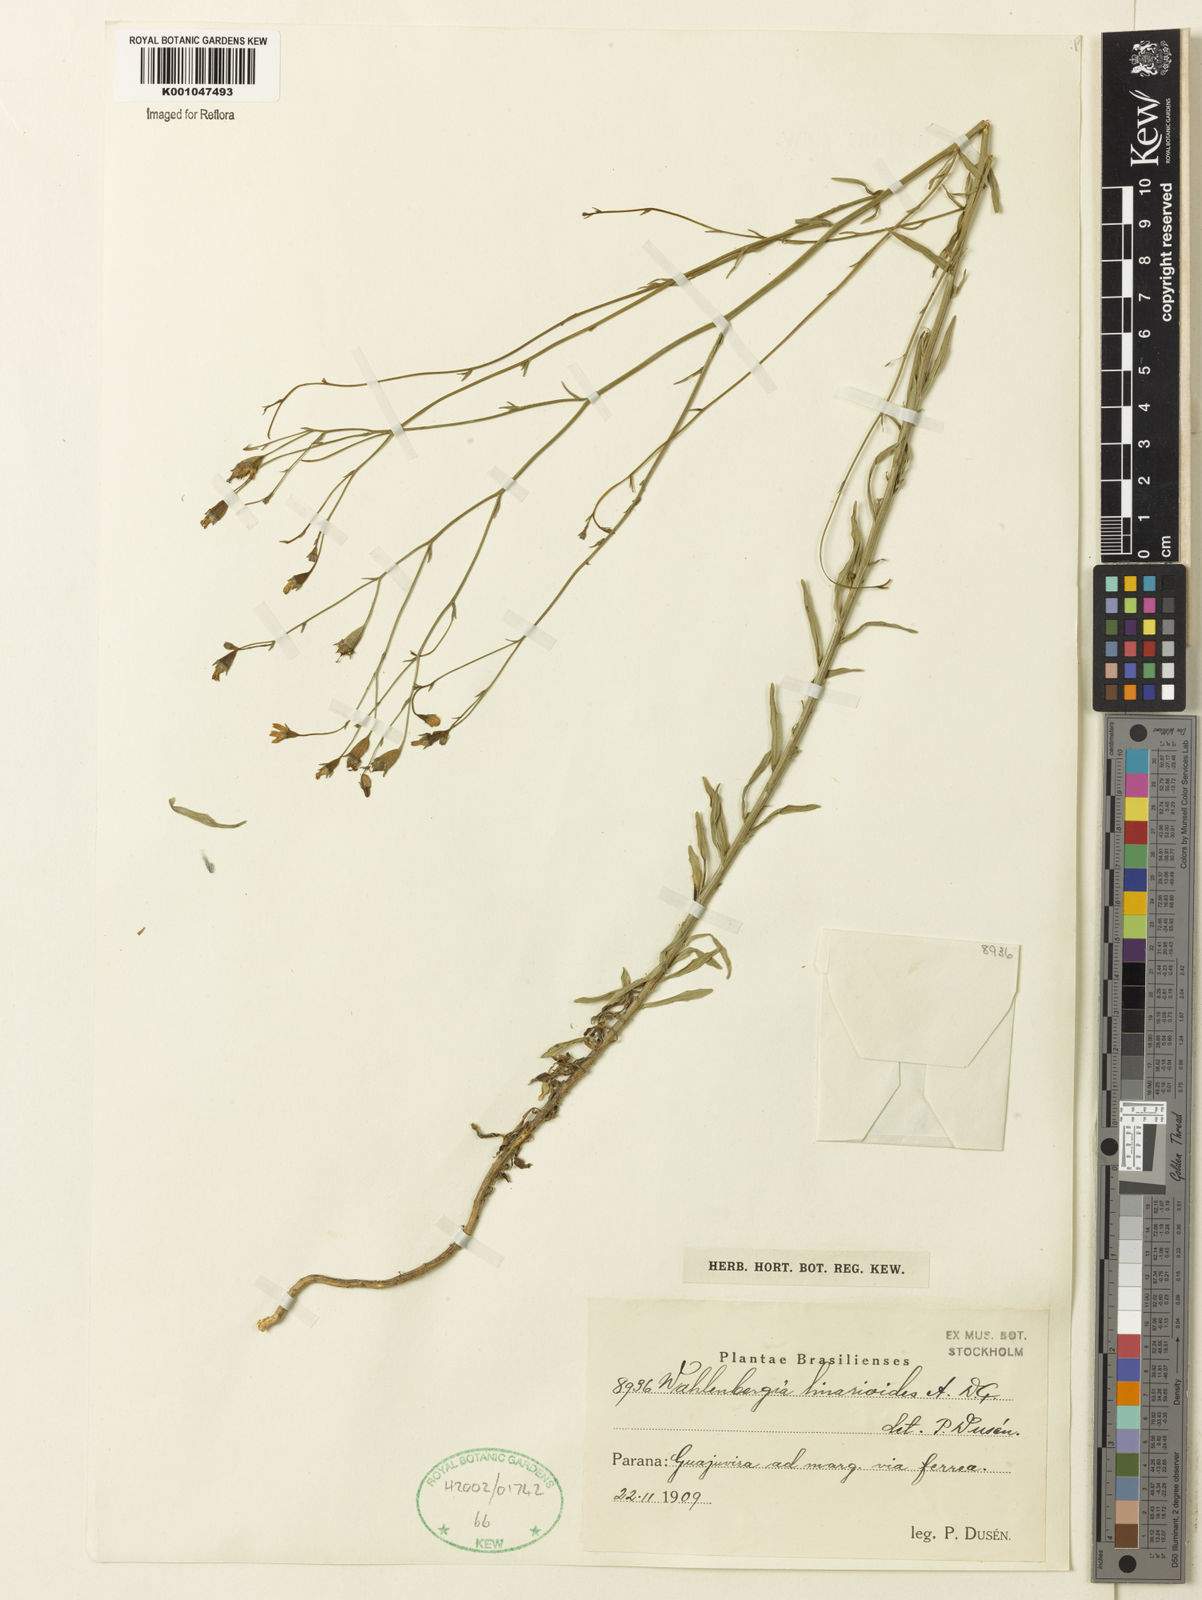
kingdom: Plantae
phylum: Tracheophyta
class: Magnoliopsida
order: Asterales
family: Campanulaceae
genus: Wahlenbergia
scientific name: Wahlenbergia linarioides
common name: Tuffybells
